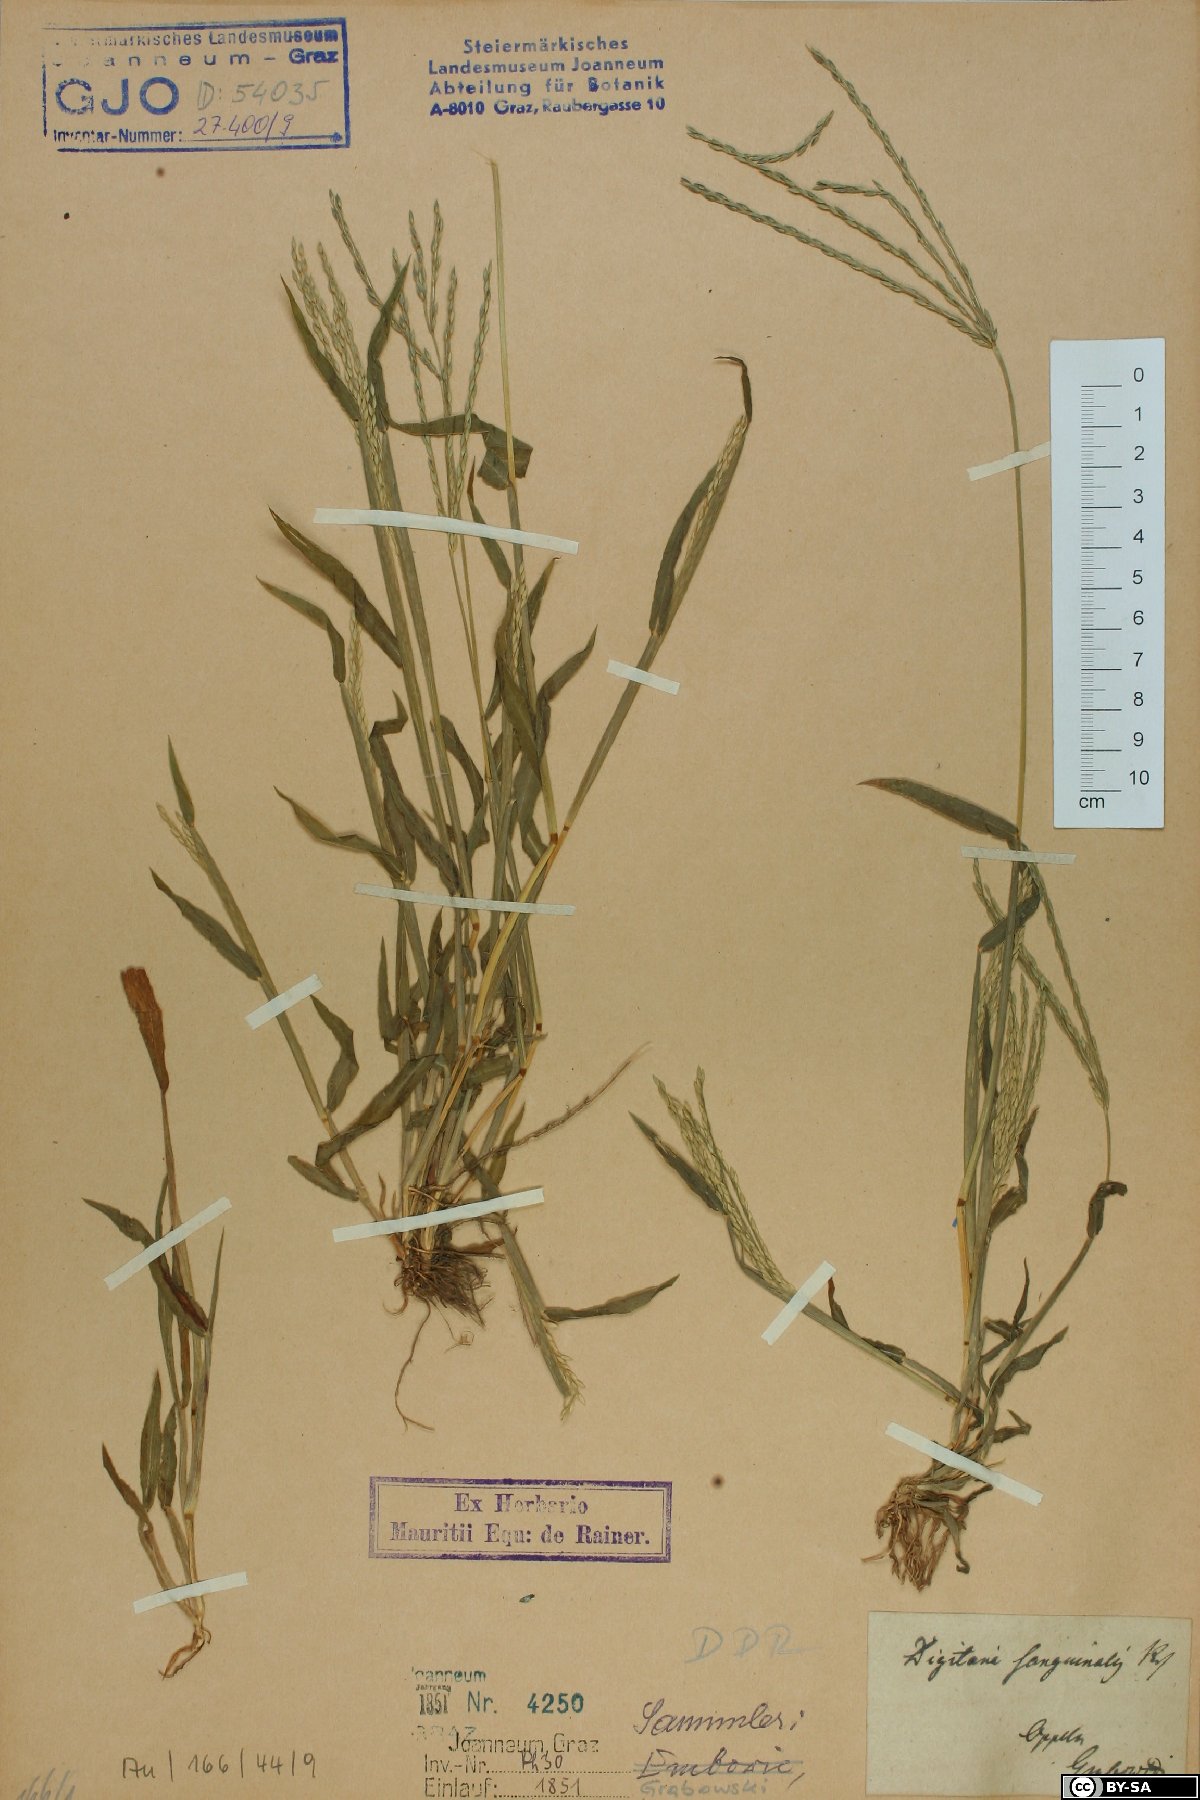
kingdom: Plantae
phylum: Tracheophyta
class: Liliopsida
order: Poales
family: Poaceae
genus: Digitaria
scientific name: Digitaria sanguinalis
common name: Hairy crabgrass
